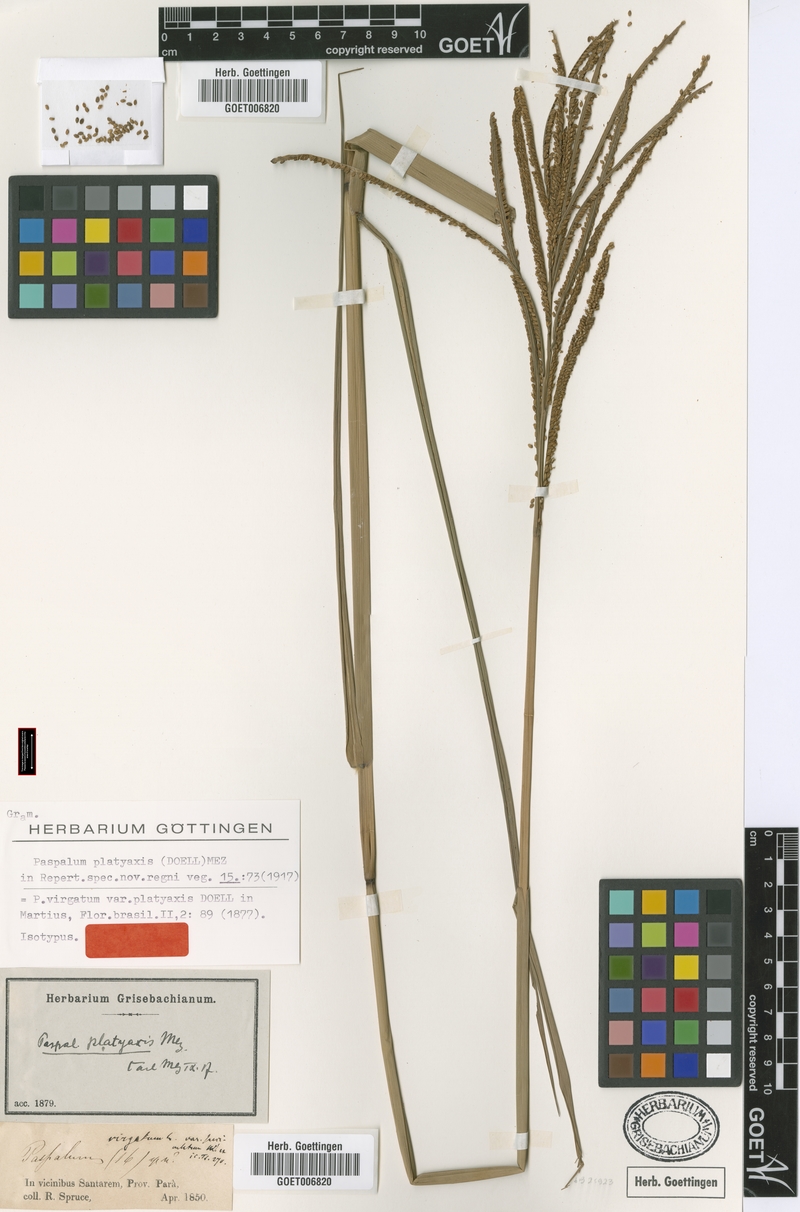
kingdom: Plantae
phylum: Tracheophyta
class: Liliopsida
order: Poales
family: Poaceae
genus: Paspalum
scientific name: Paspalum wrightii
